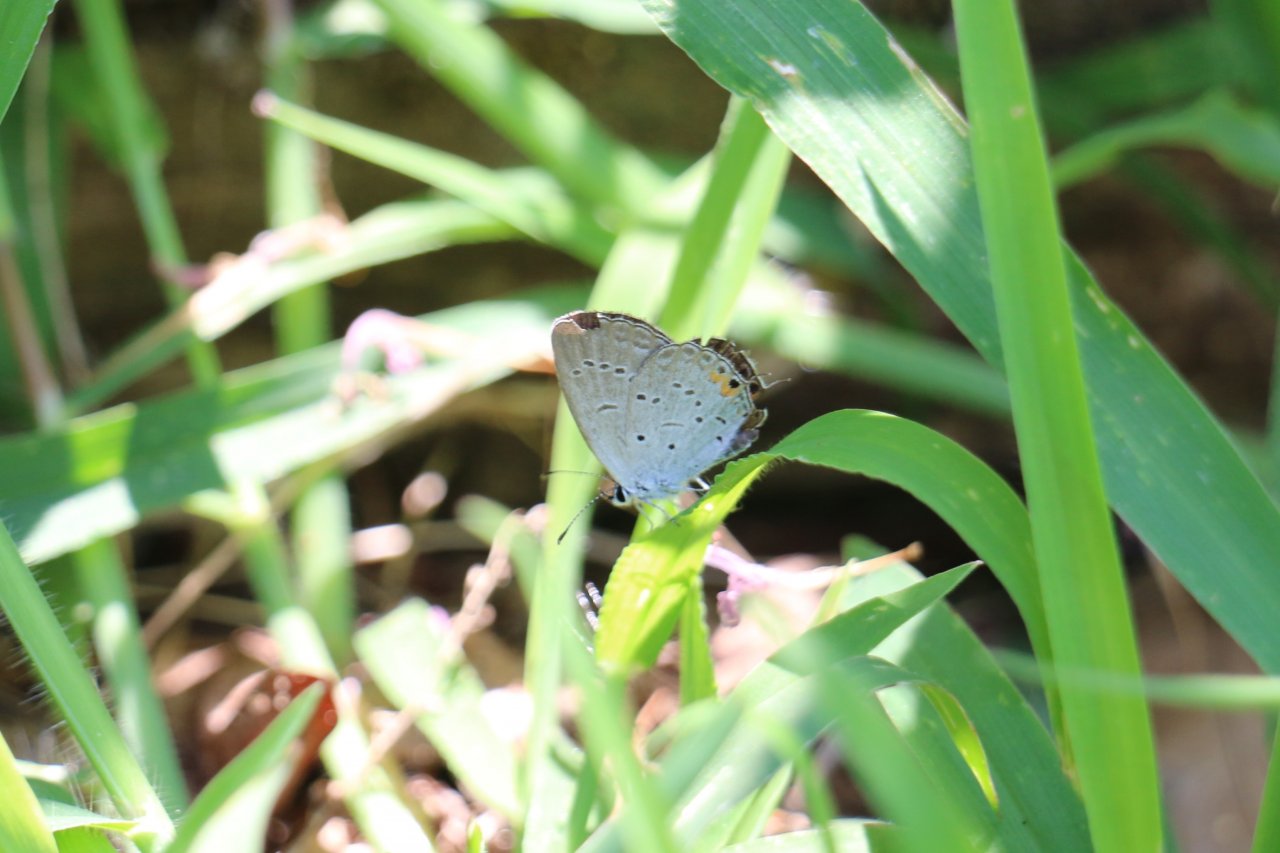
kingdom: Animalia
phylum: Arthropoda
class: Insecta
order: Lepidoptera
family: Lycaenidae
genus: Elkalyce
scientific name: Elkalyce comyntas
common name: Eastern Tailed-Blue
